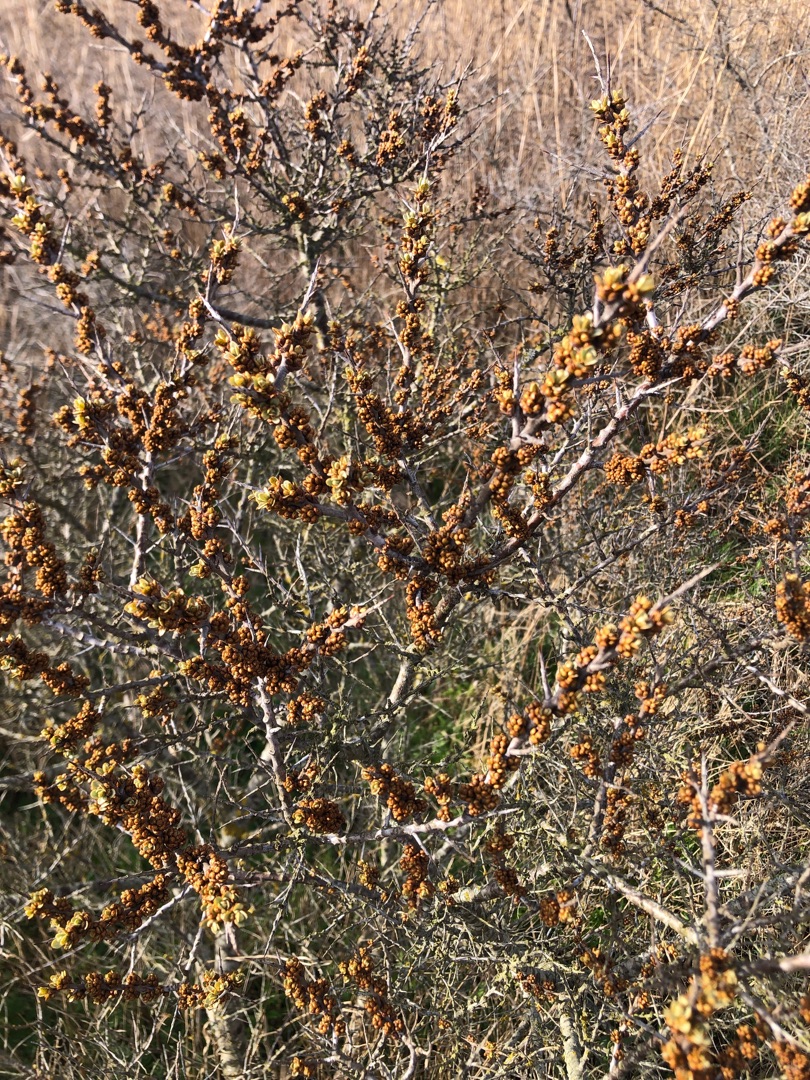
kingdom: Plantae
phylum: Tracheophyta
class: Magnoliopsida
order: Rosales
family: Elaeagnaceae
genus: Hippophae
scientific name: Hippophae rhamnoides
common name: Havtorn
